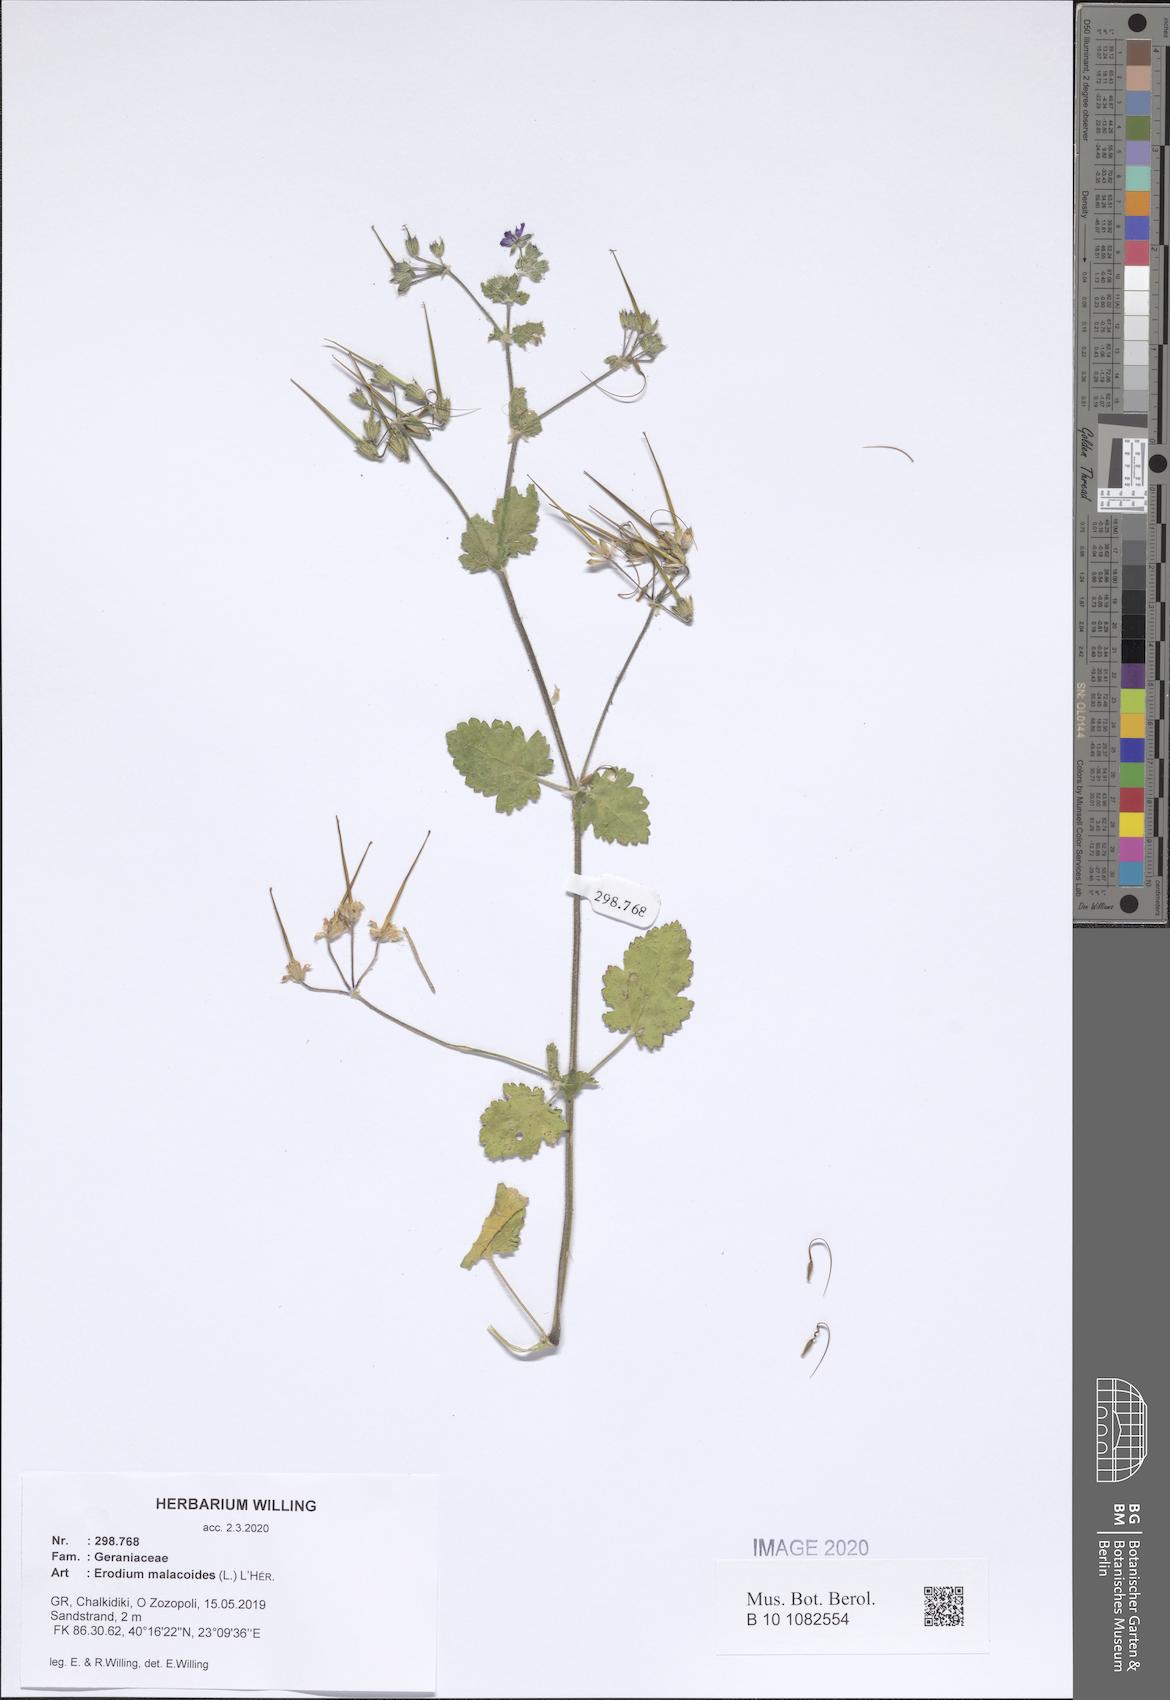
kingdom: Plantae
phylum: Tracheophyta
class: Magnoliopsida
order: Geraniales
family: Geraniaceae
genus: Erodium
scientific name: Erodium malacoides
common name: Soft stork's-bill
